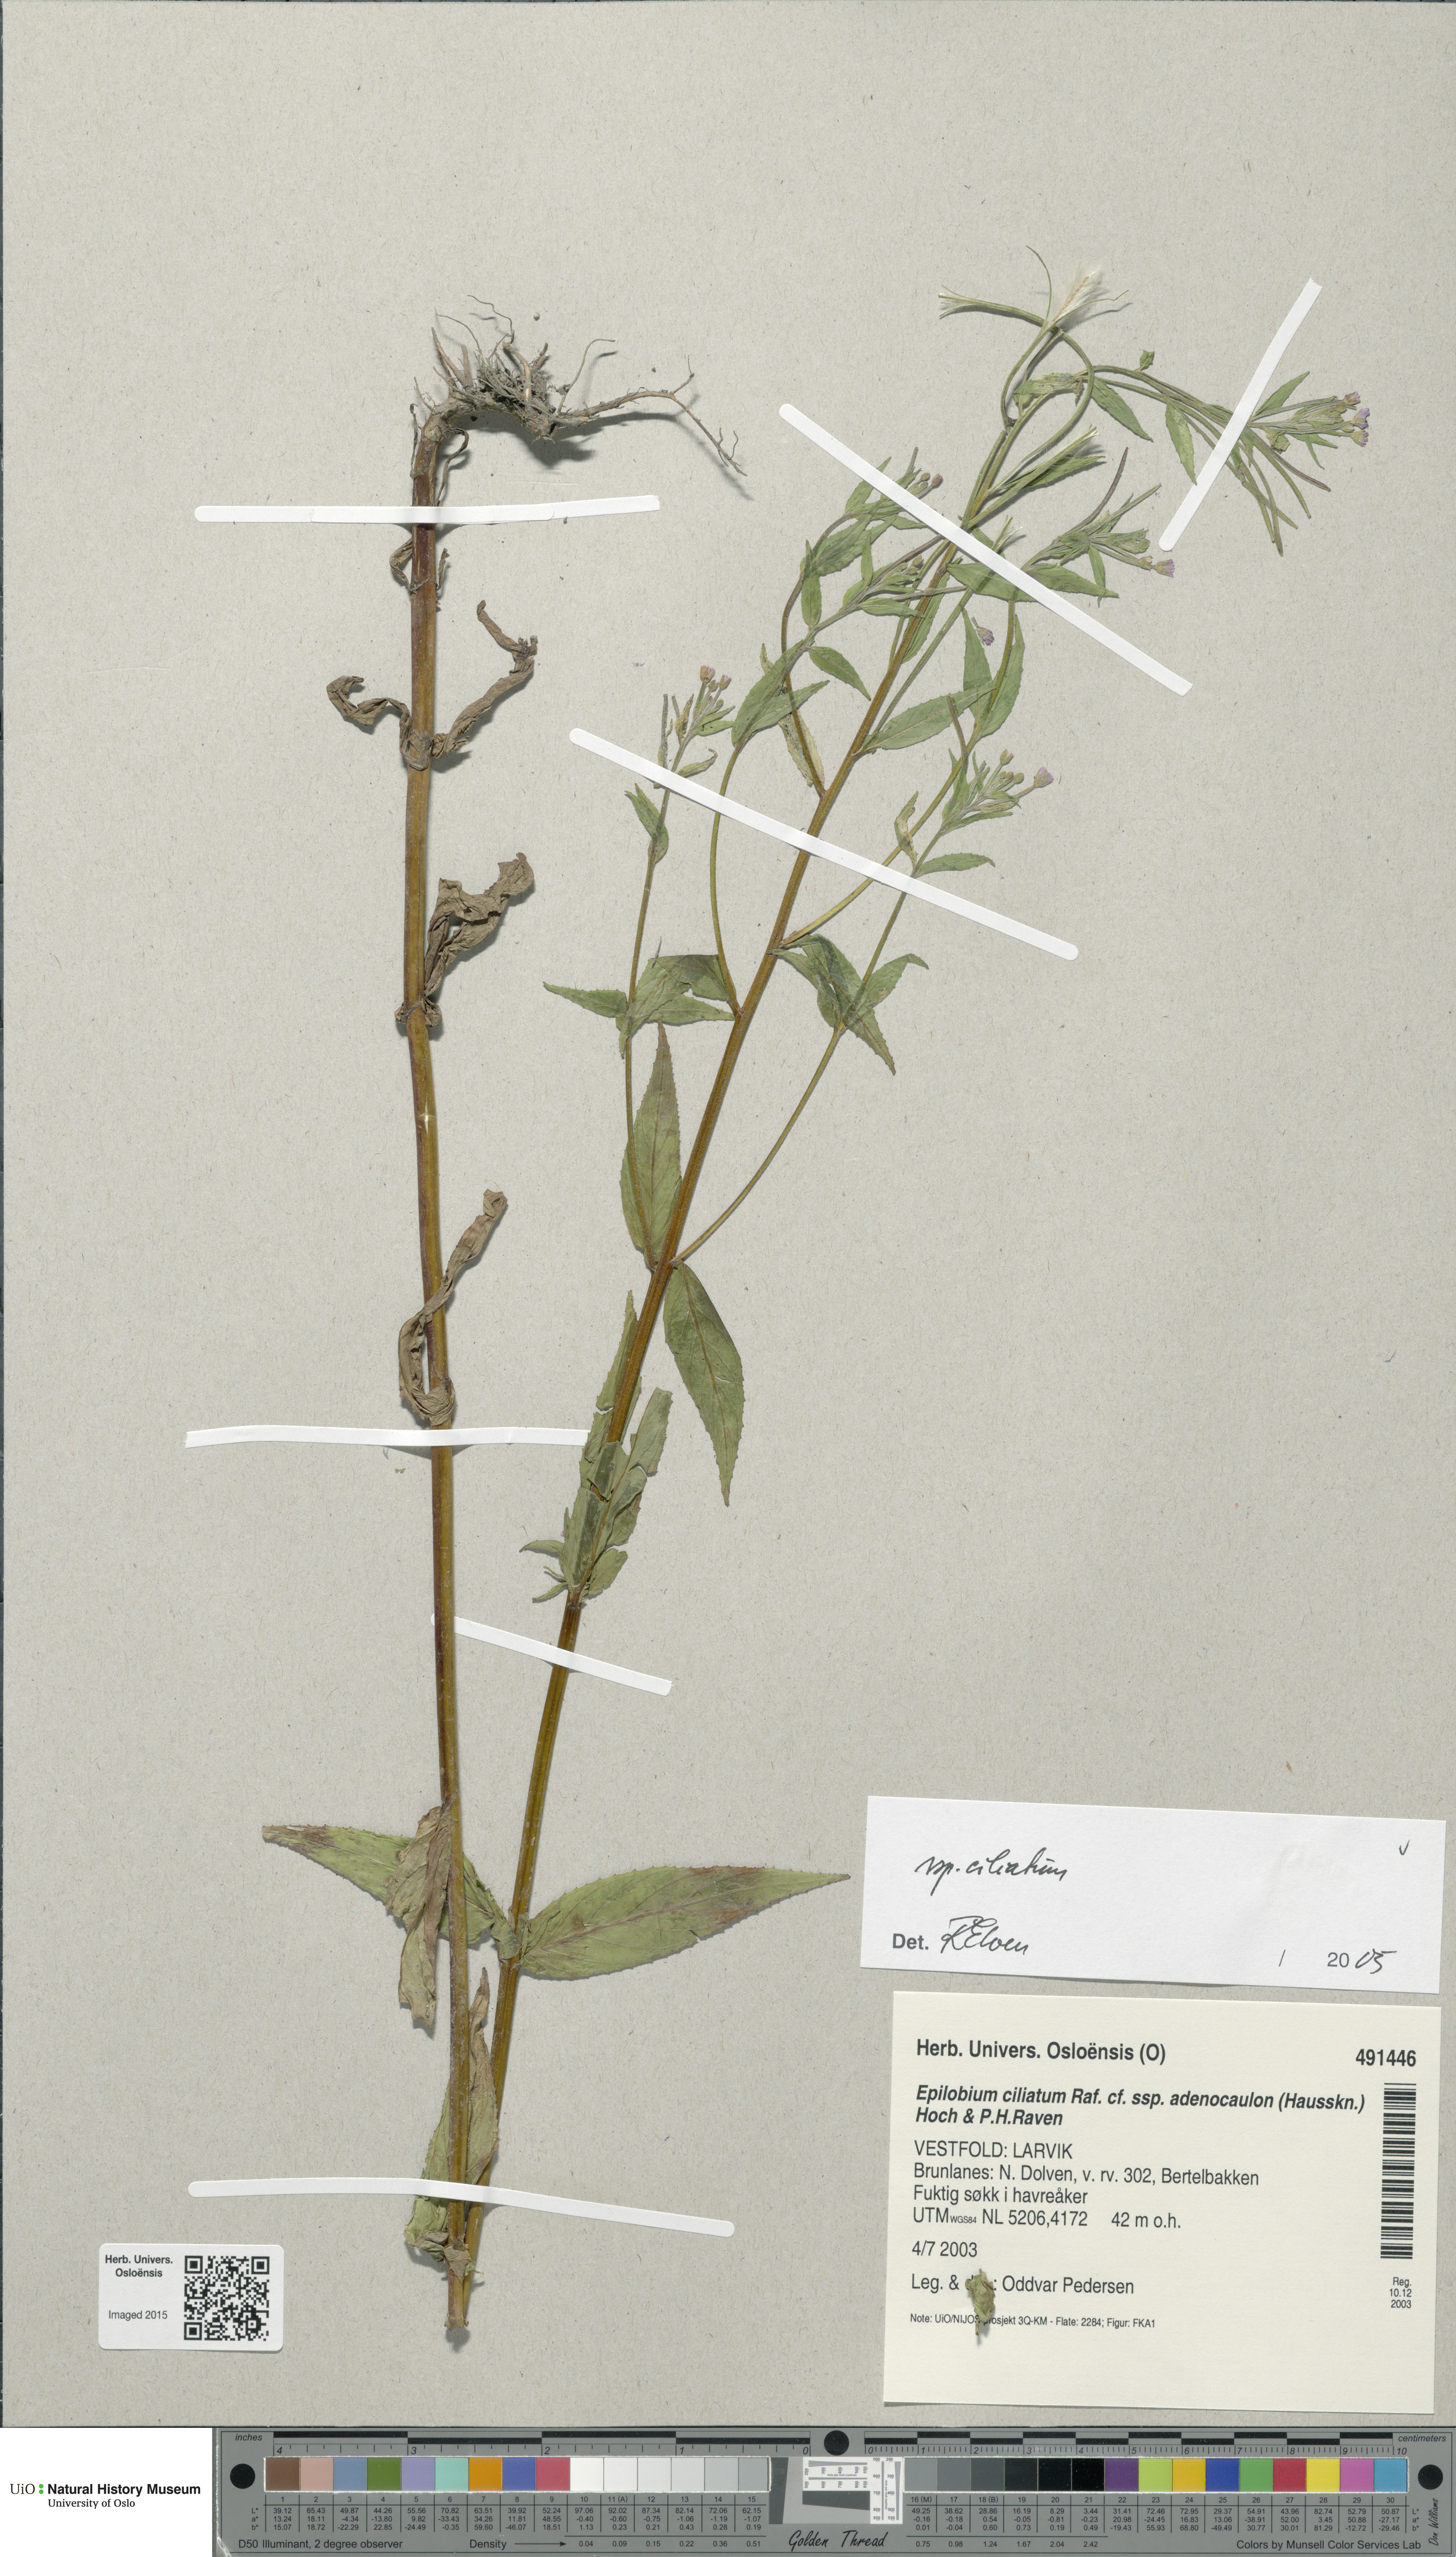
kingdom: Plantae
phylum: Tracheophyta
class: Magnoliopsida
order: Myrtales
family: Onagraceae
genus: Epilobium
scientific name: Epilobium ciliatum
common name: American willowherb
